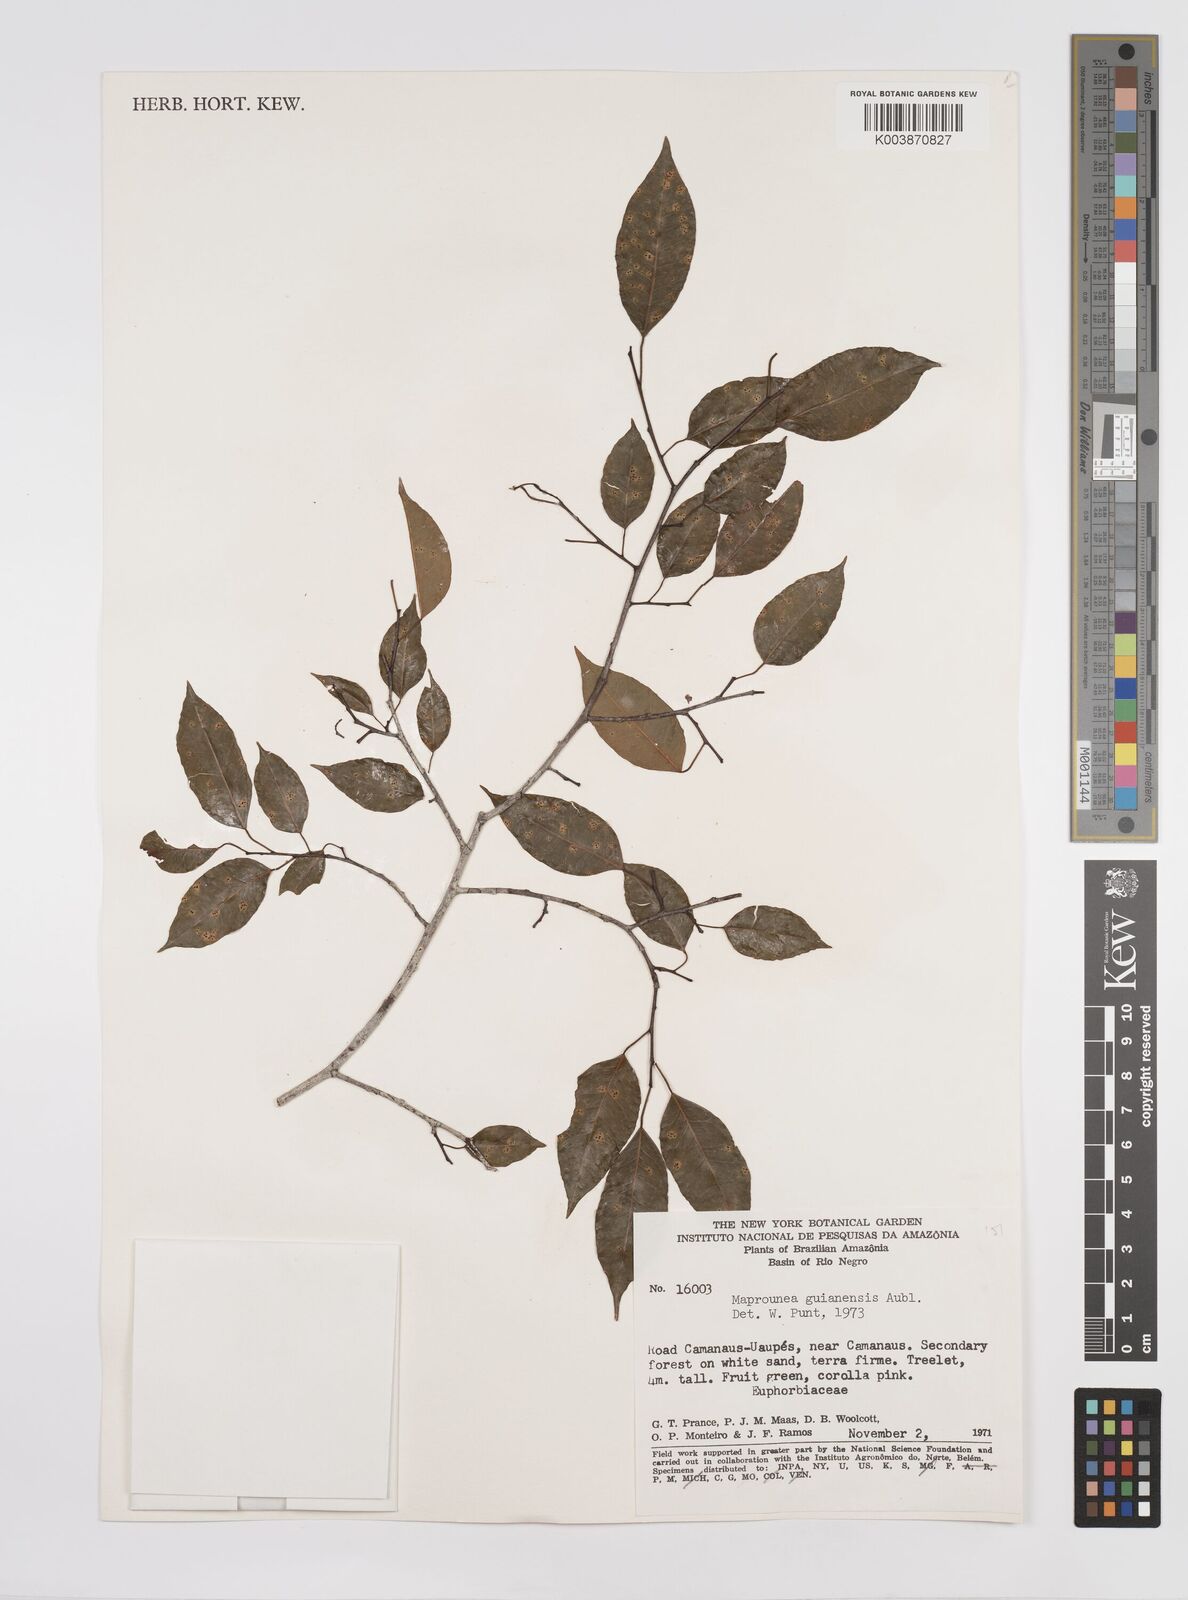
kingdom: Plantae
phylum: Tracheophyta
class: Magnoliopsida
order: Malpighiales
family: Euphorbiaceae
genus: Maprounea
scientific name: Maprounea guianensis
